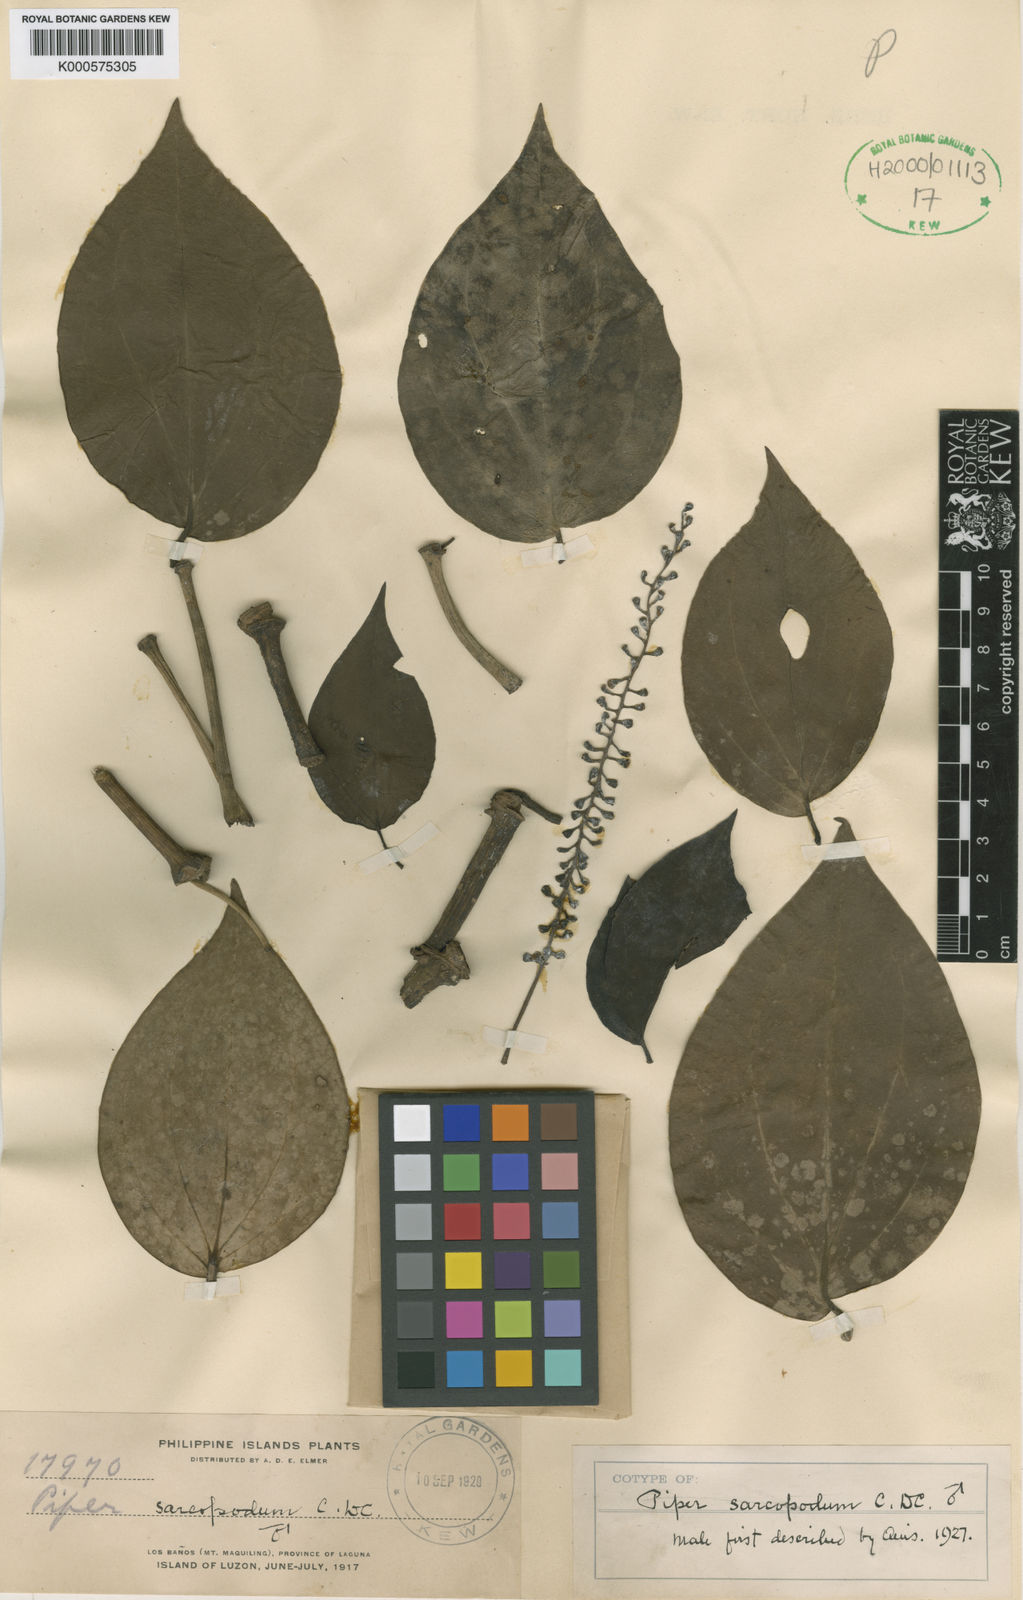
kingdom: Plantae
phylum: Tracheophyta
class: Magnoliopsida
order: Piperales
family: Piperaceae
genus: Piper
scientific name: Piper baccatum
